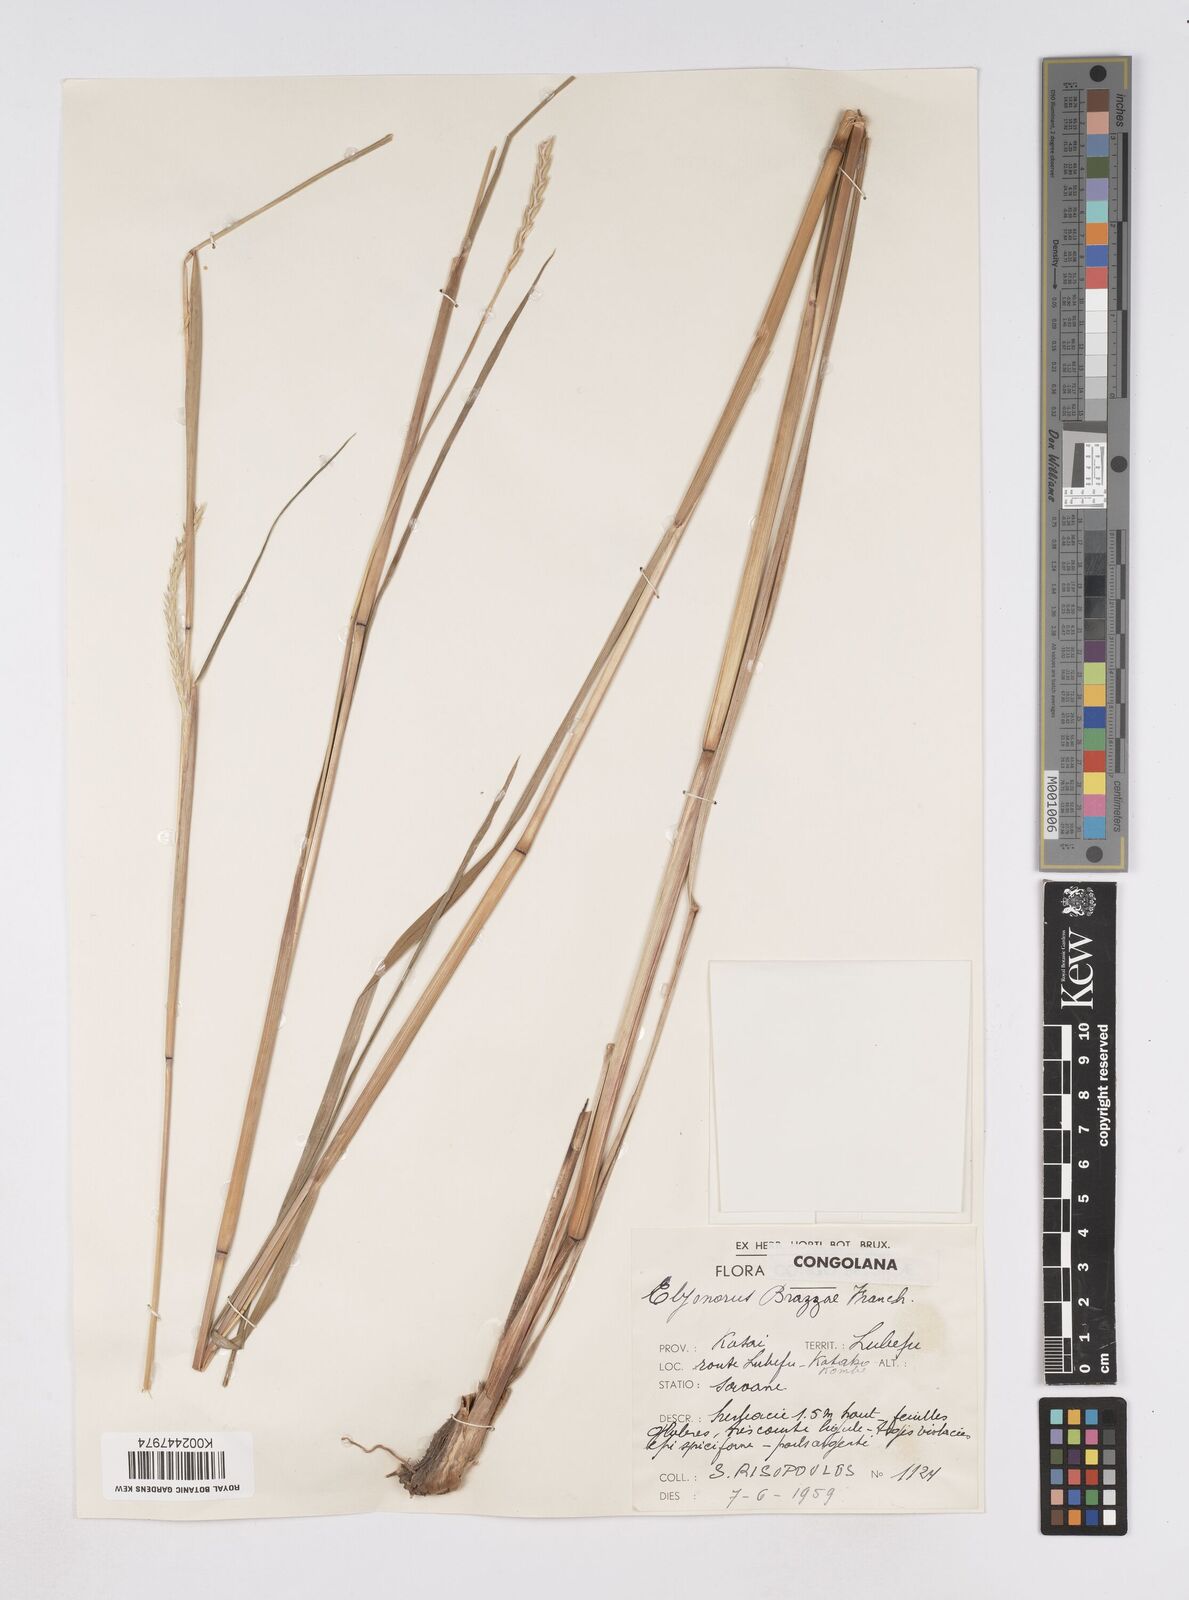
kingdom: Plantae
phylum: Tracheophyta
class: Liliopsida
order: Poales
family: Poaceae
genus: Elionurus
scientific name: Elionurus platypus
